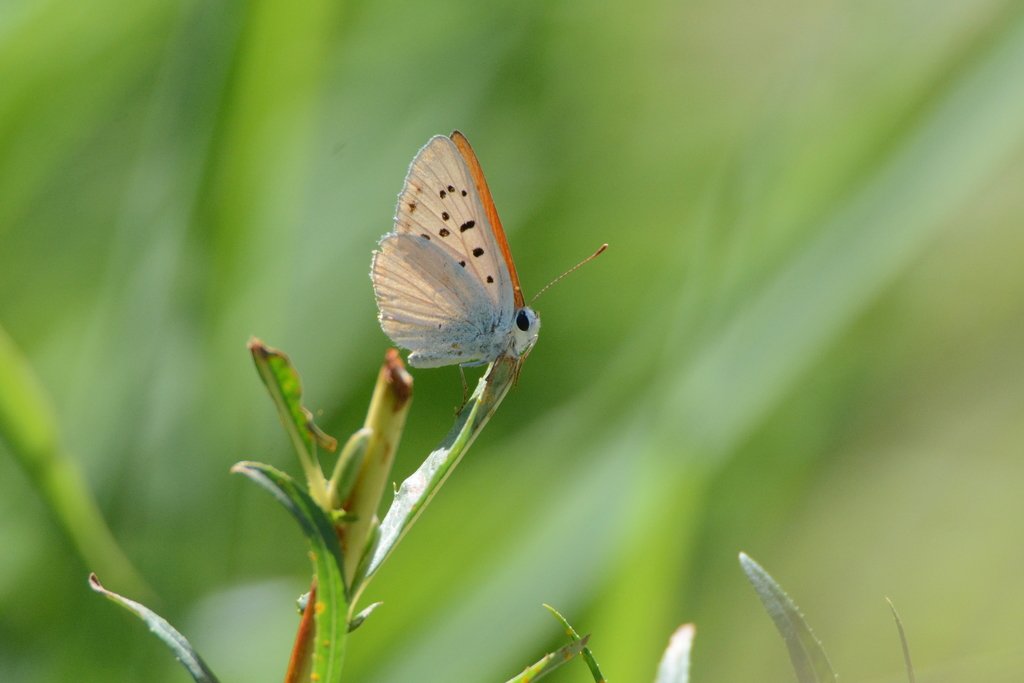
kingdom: Animalia
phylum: Arthropoda
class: Insecta
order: Lepidoptera
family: Sesiidae
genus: Sesia
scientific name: Sesia Lycaena rubidus
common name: Ruddy Copper
